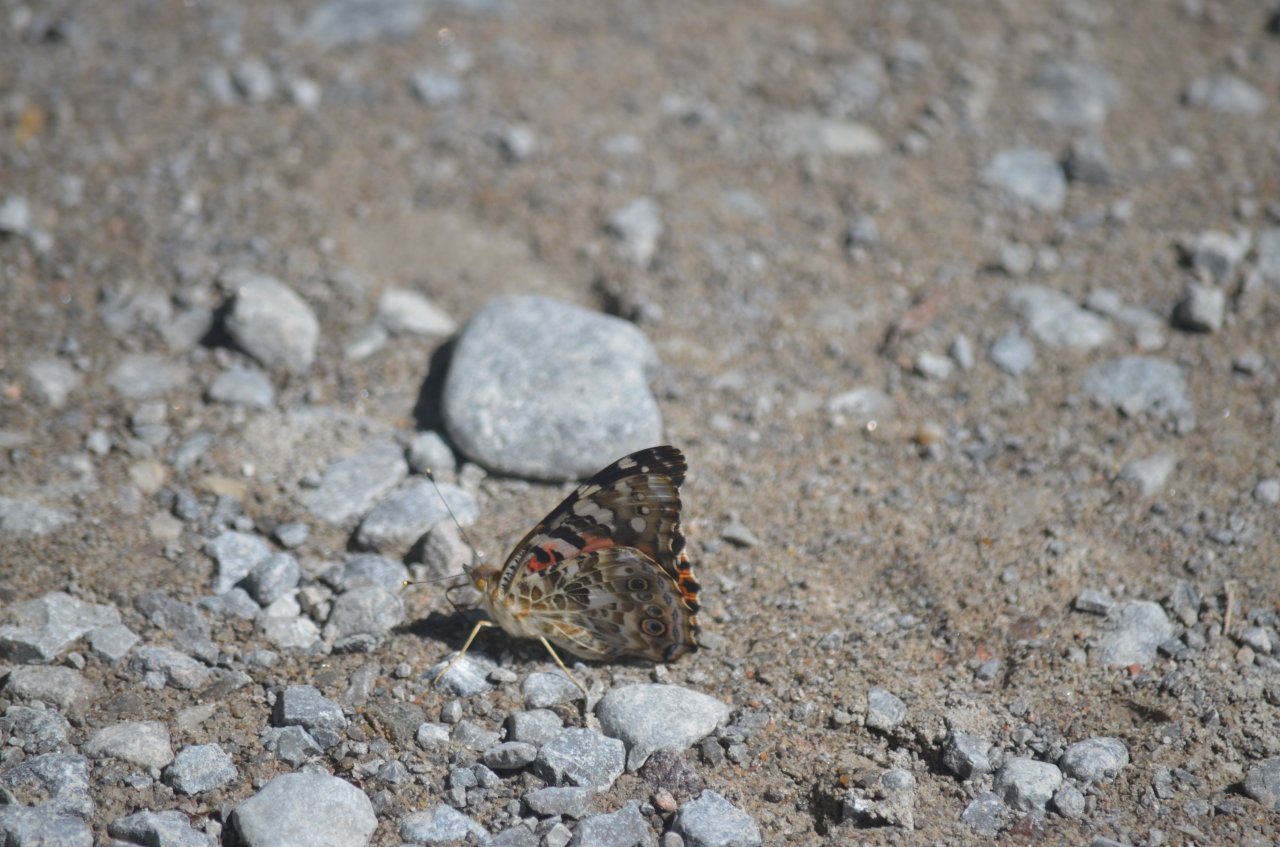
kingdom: Animalia
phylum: Arthropoda
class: Insecta
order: Lepidoptera
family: Nymphalidae
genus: Vanessa
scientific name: Vanessa cardui
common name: Painted Lady
